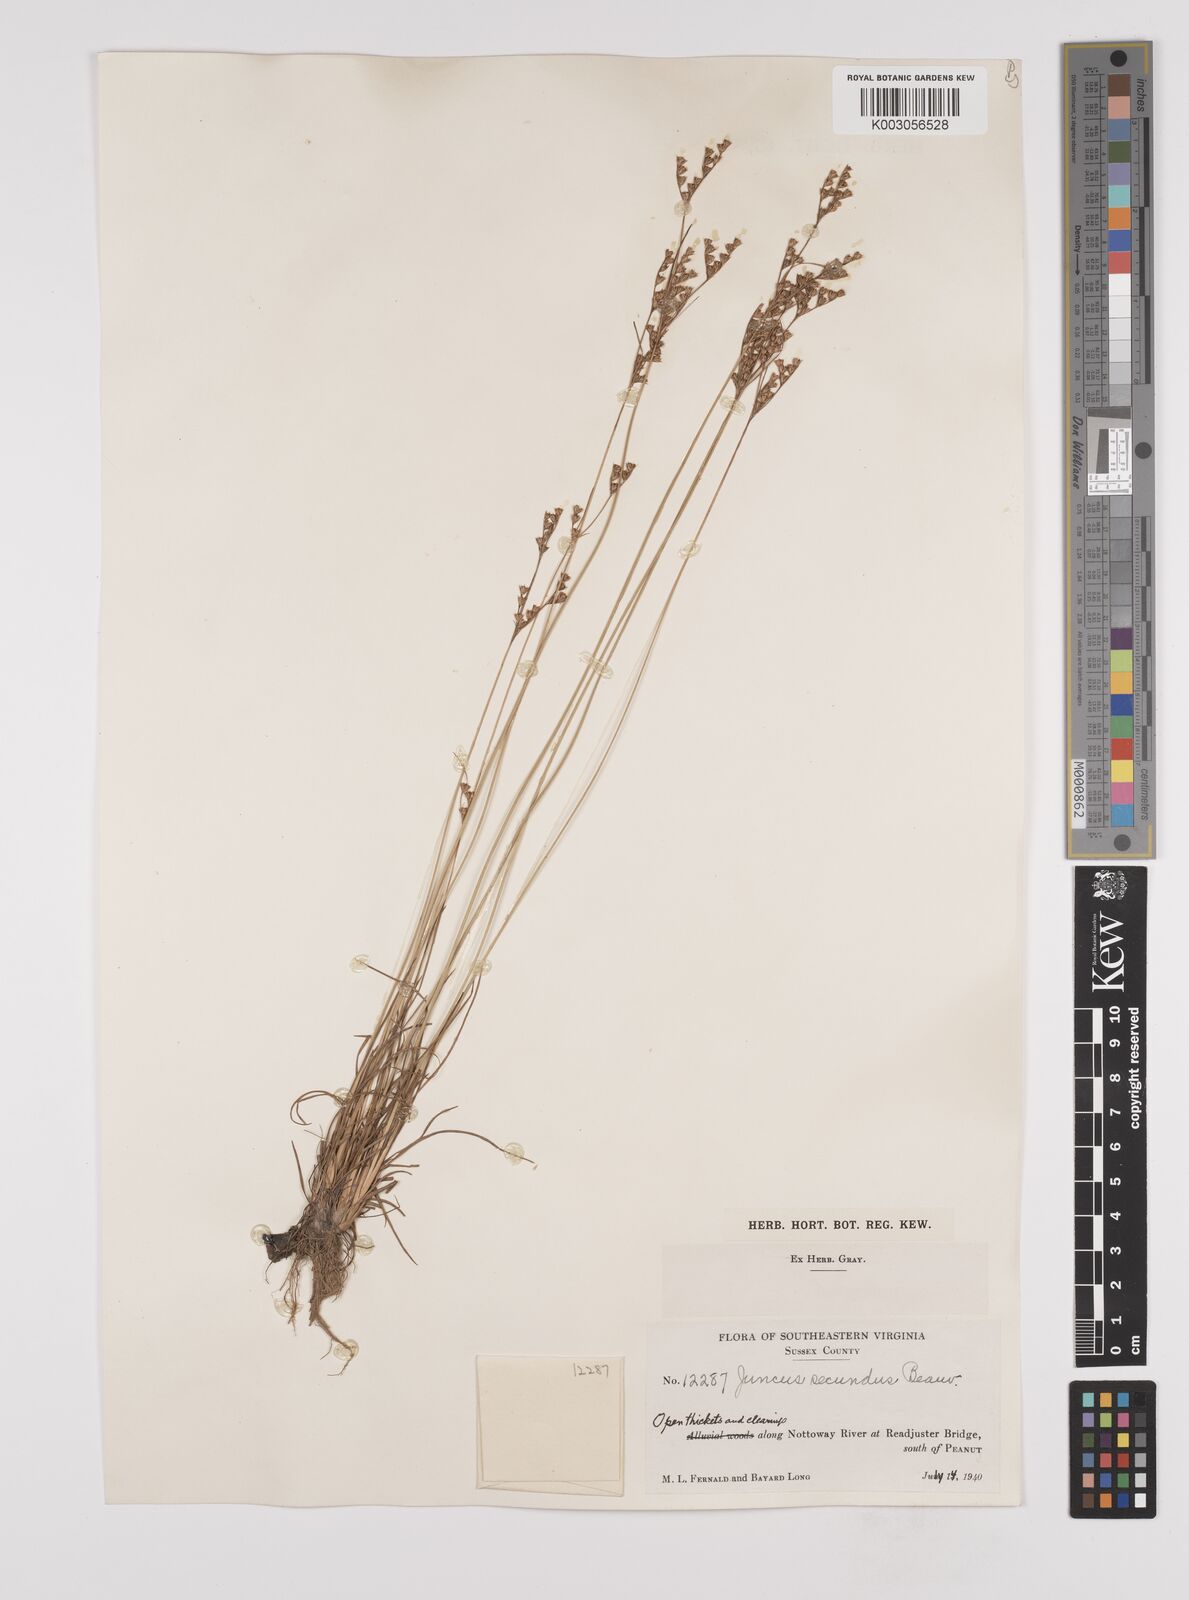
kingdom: Plantae
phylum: Tracheophyta
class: Liliopsida
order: Poales
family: Juncaceae
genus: Juncus
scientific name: Juncus secundus
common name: Lopsided rush
